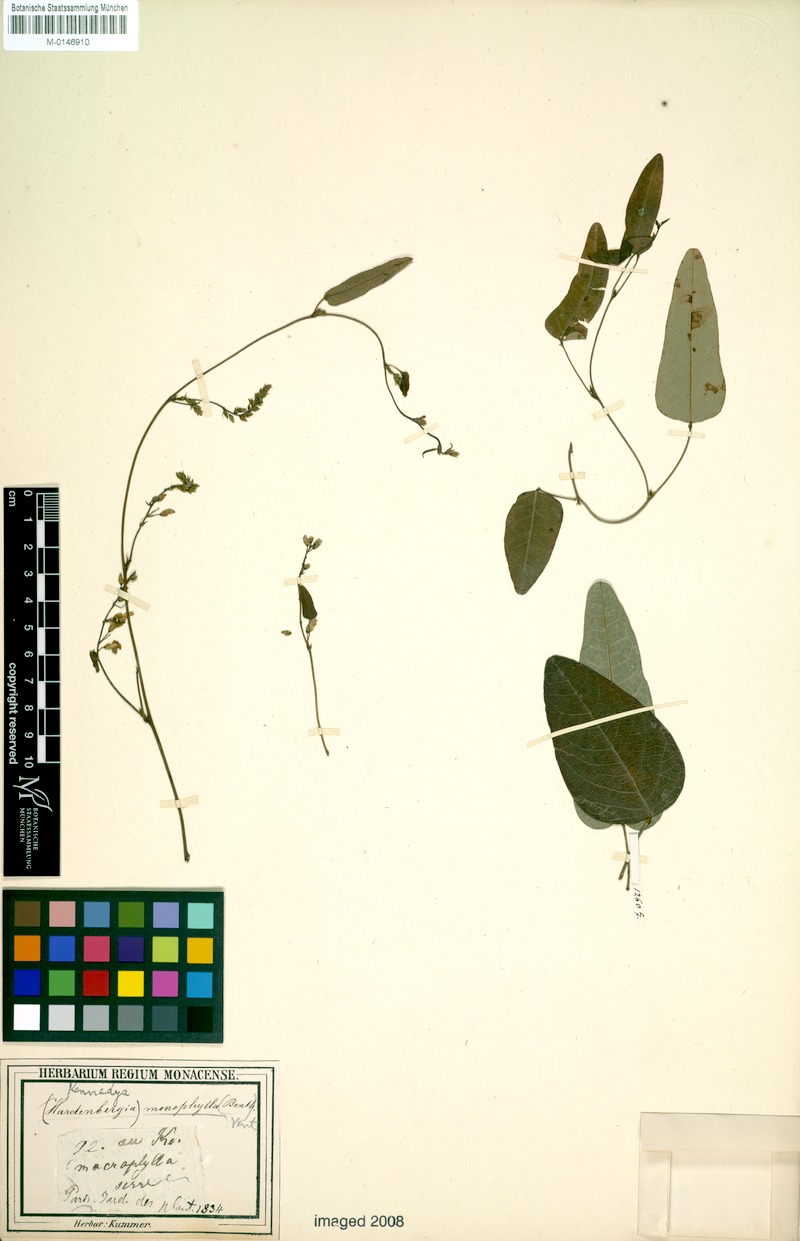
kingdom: Plantae
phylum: Tracheophyta
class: Magnoliopsida
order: Fabales
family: Fabaceae
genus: Hardenbergia
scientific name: Hardenbergia violacea
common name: Coral-pea
